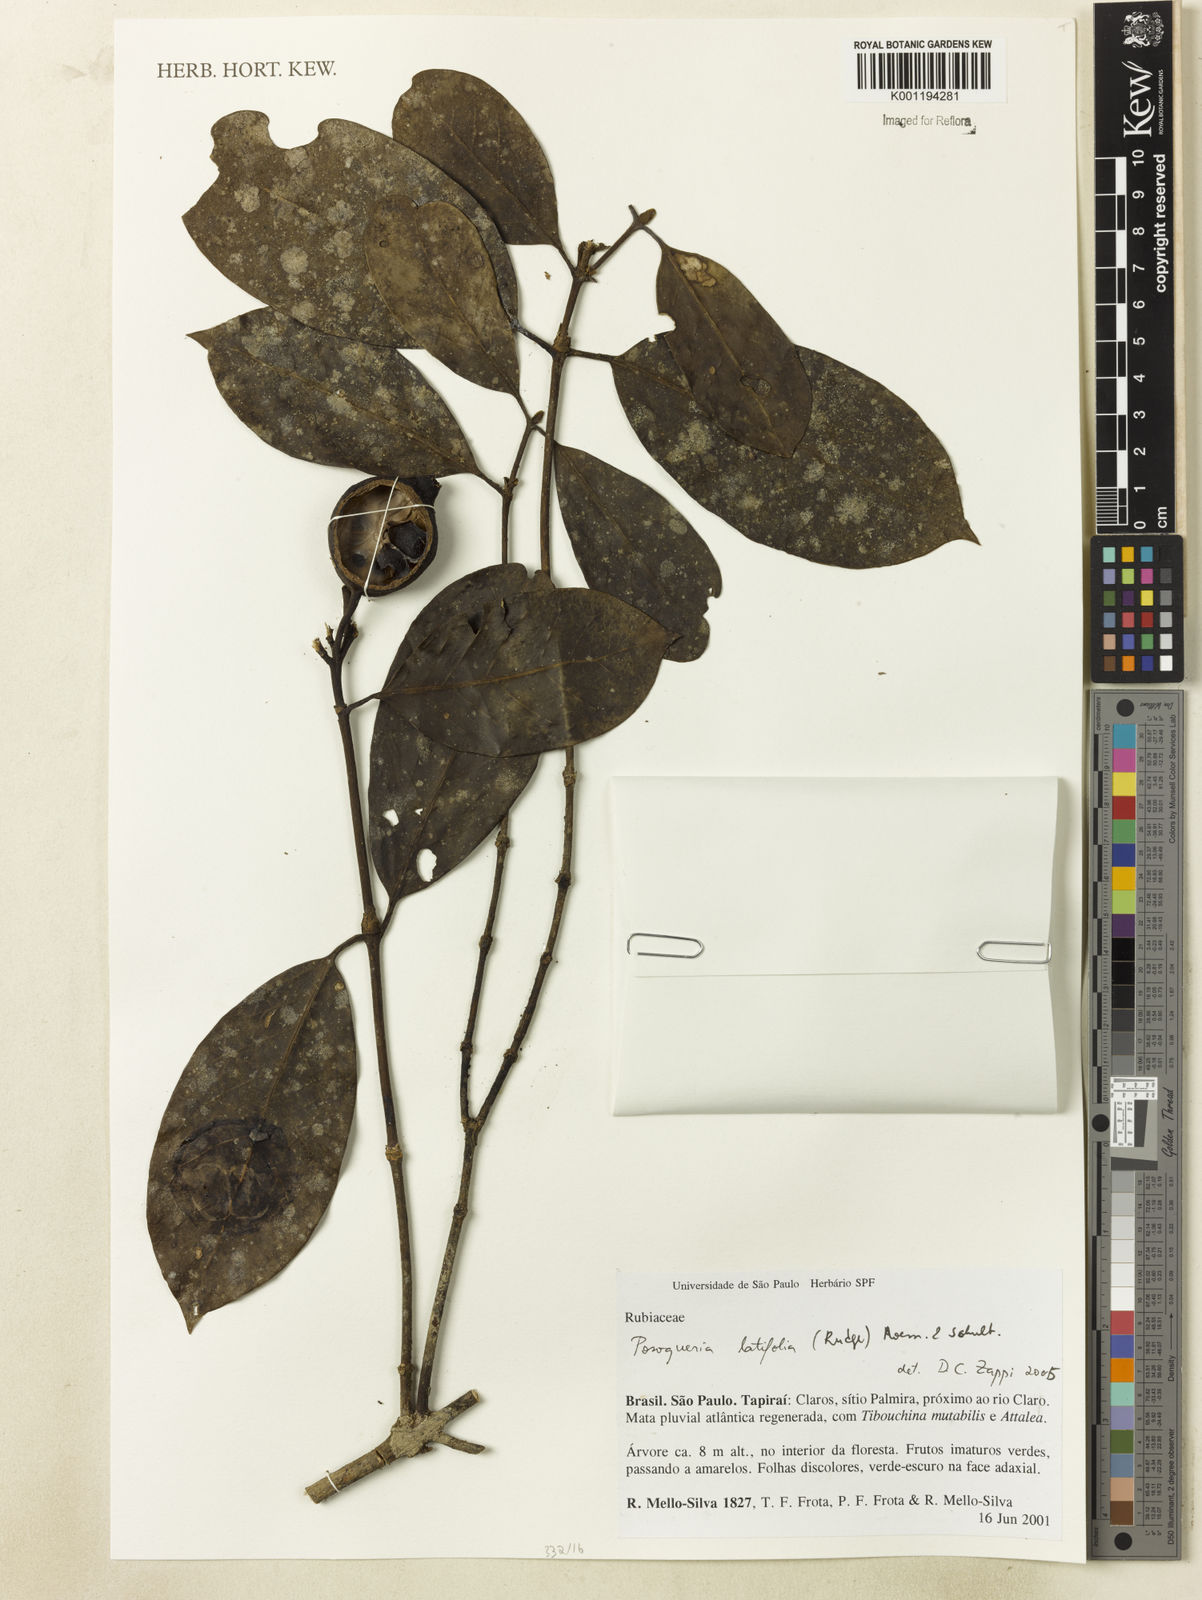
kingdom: Plantae
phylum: Tracheophyta
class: Magnoliopsida
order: Gentianales
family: Rubiaceae
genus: Posoqueria
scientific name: Posoqueria latifolia
